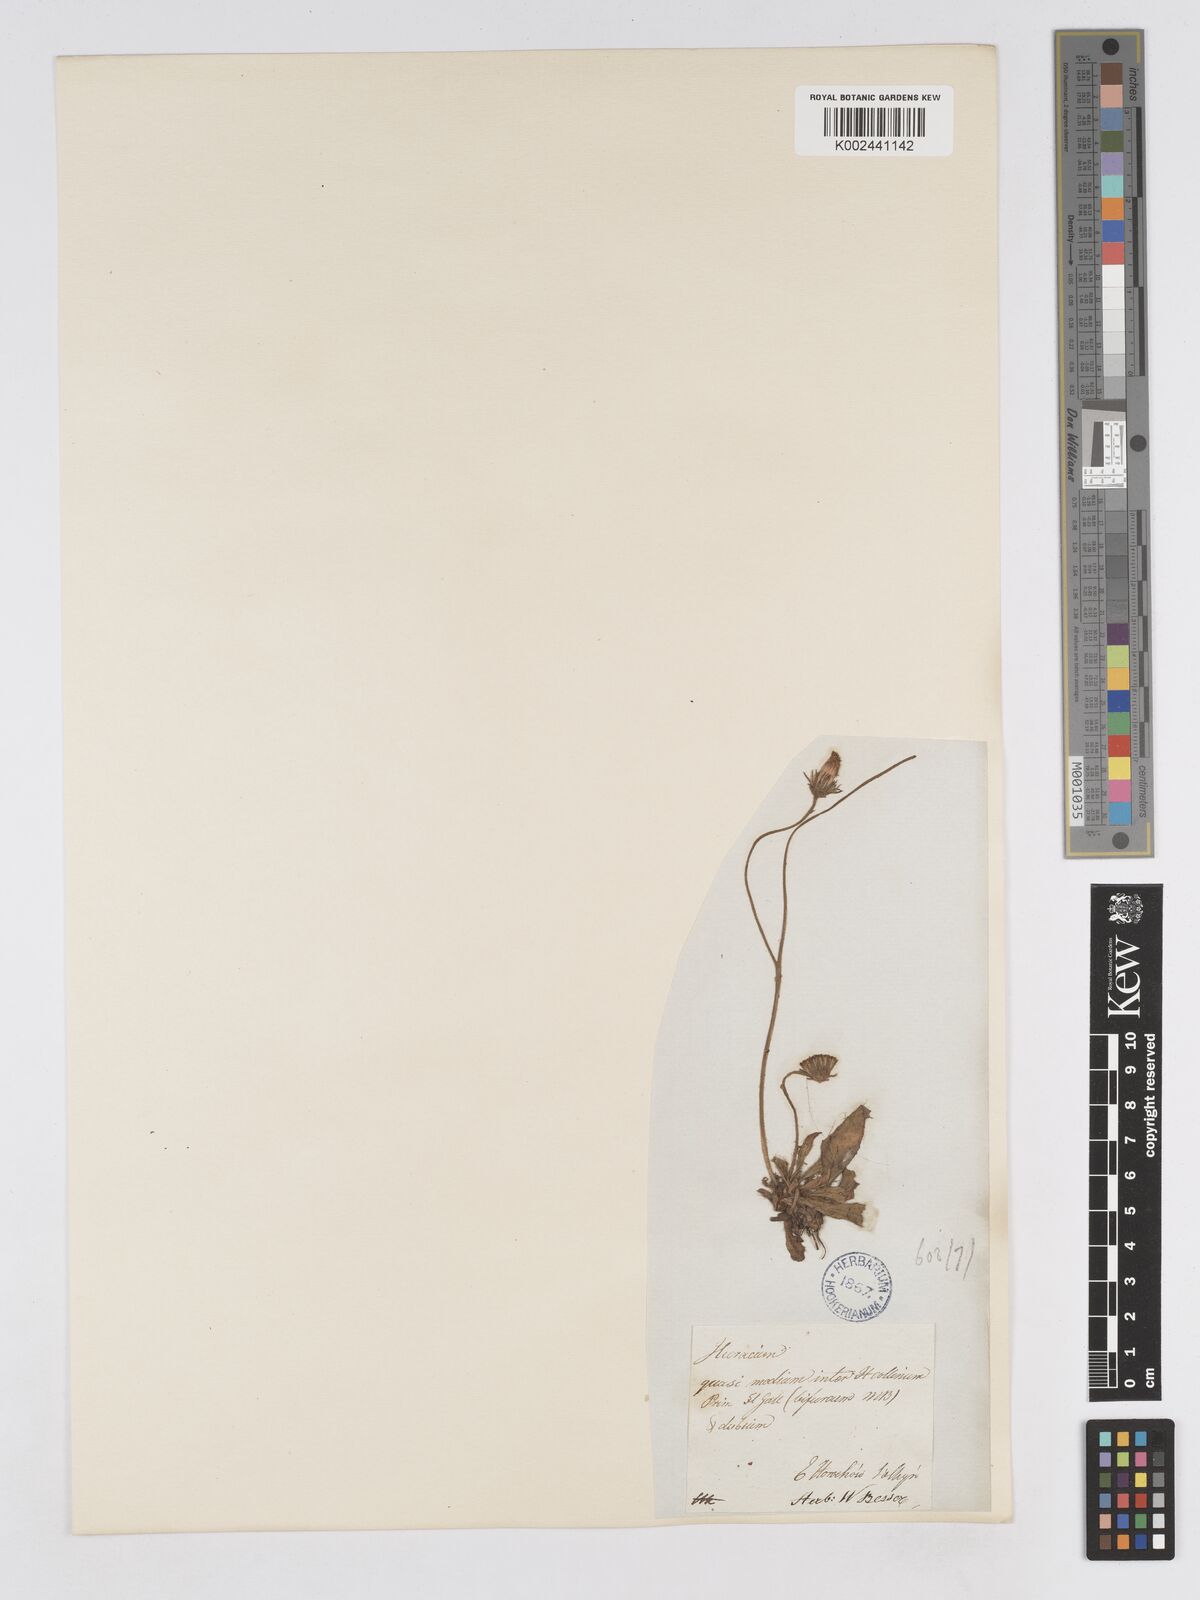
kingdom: Plantae
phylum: Tracheophyta
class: Magnoliopsida
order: Asterales
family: Asteraceae
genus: Pilosella
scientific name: Pilosella hypoleuca
